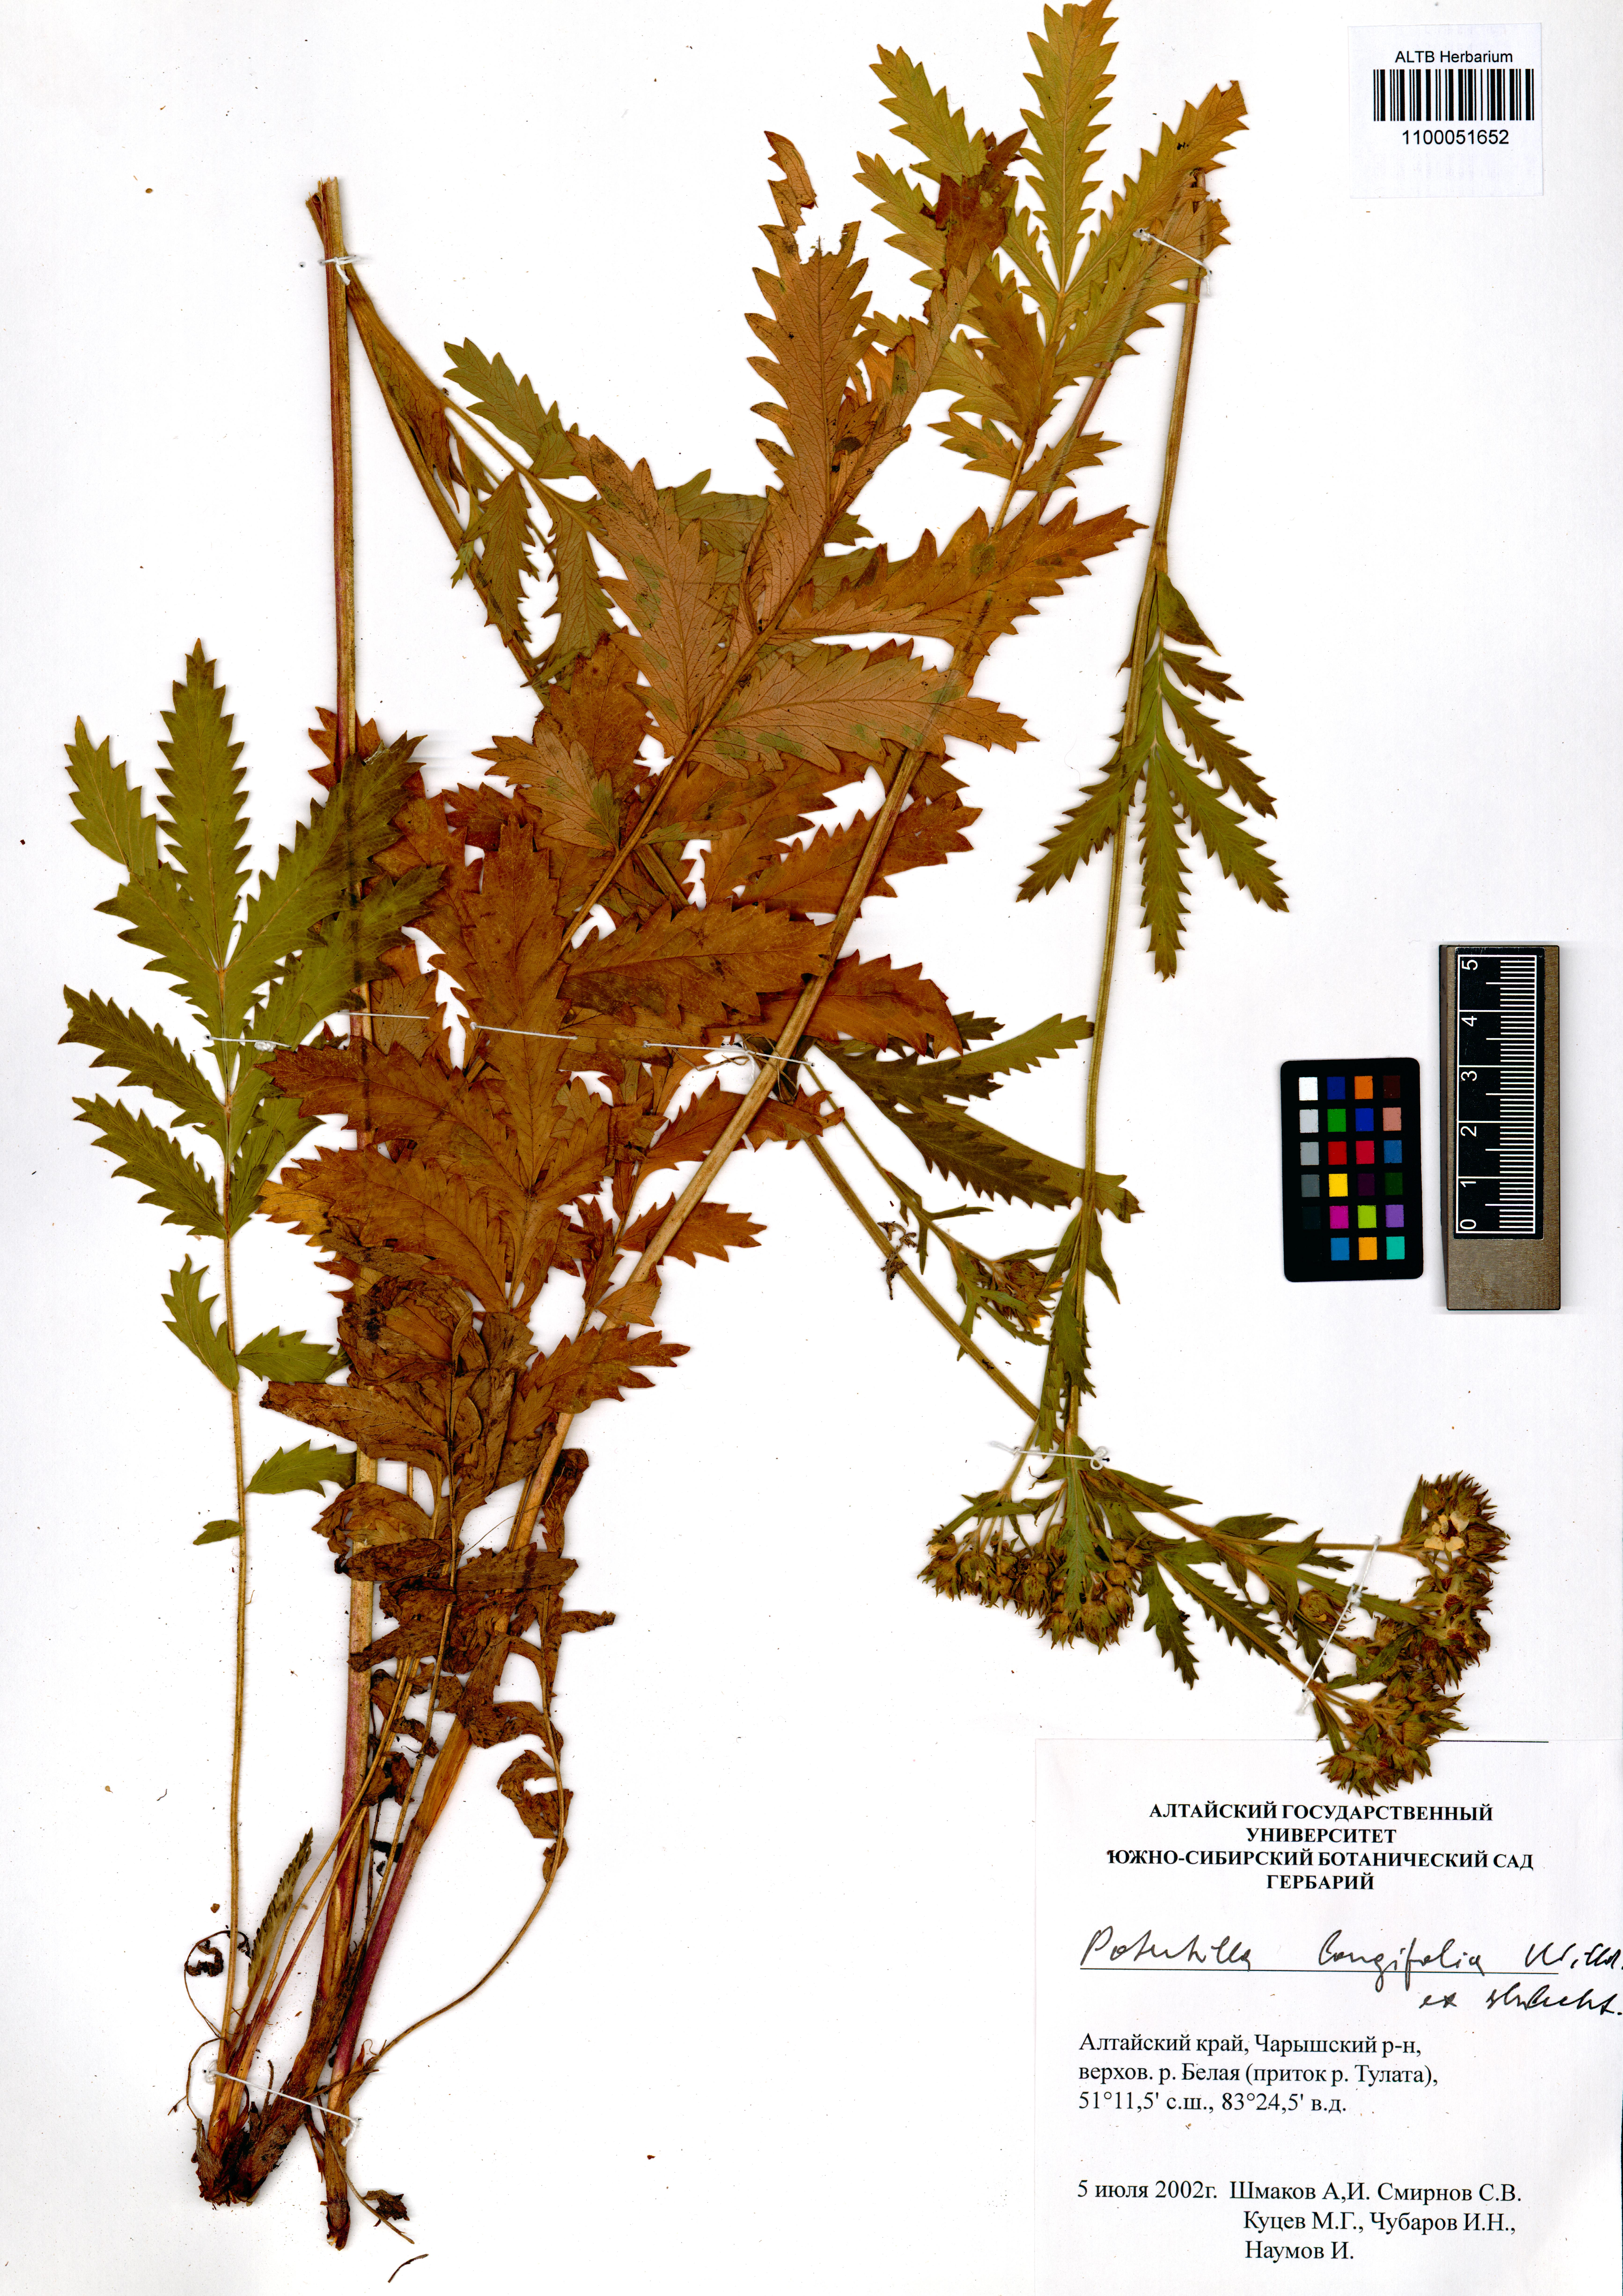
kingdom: Plantae
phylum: Tracheophyta
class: Magnoliopsida
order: Rosales
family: Rosaceae
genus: Potentilla
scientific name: Potentilla longifolia
